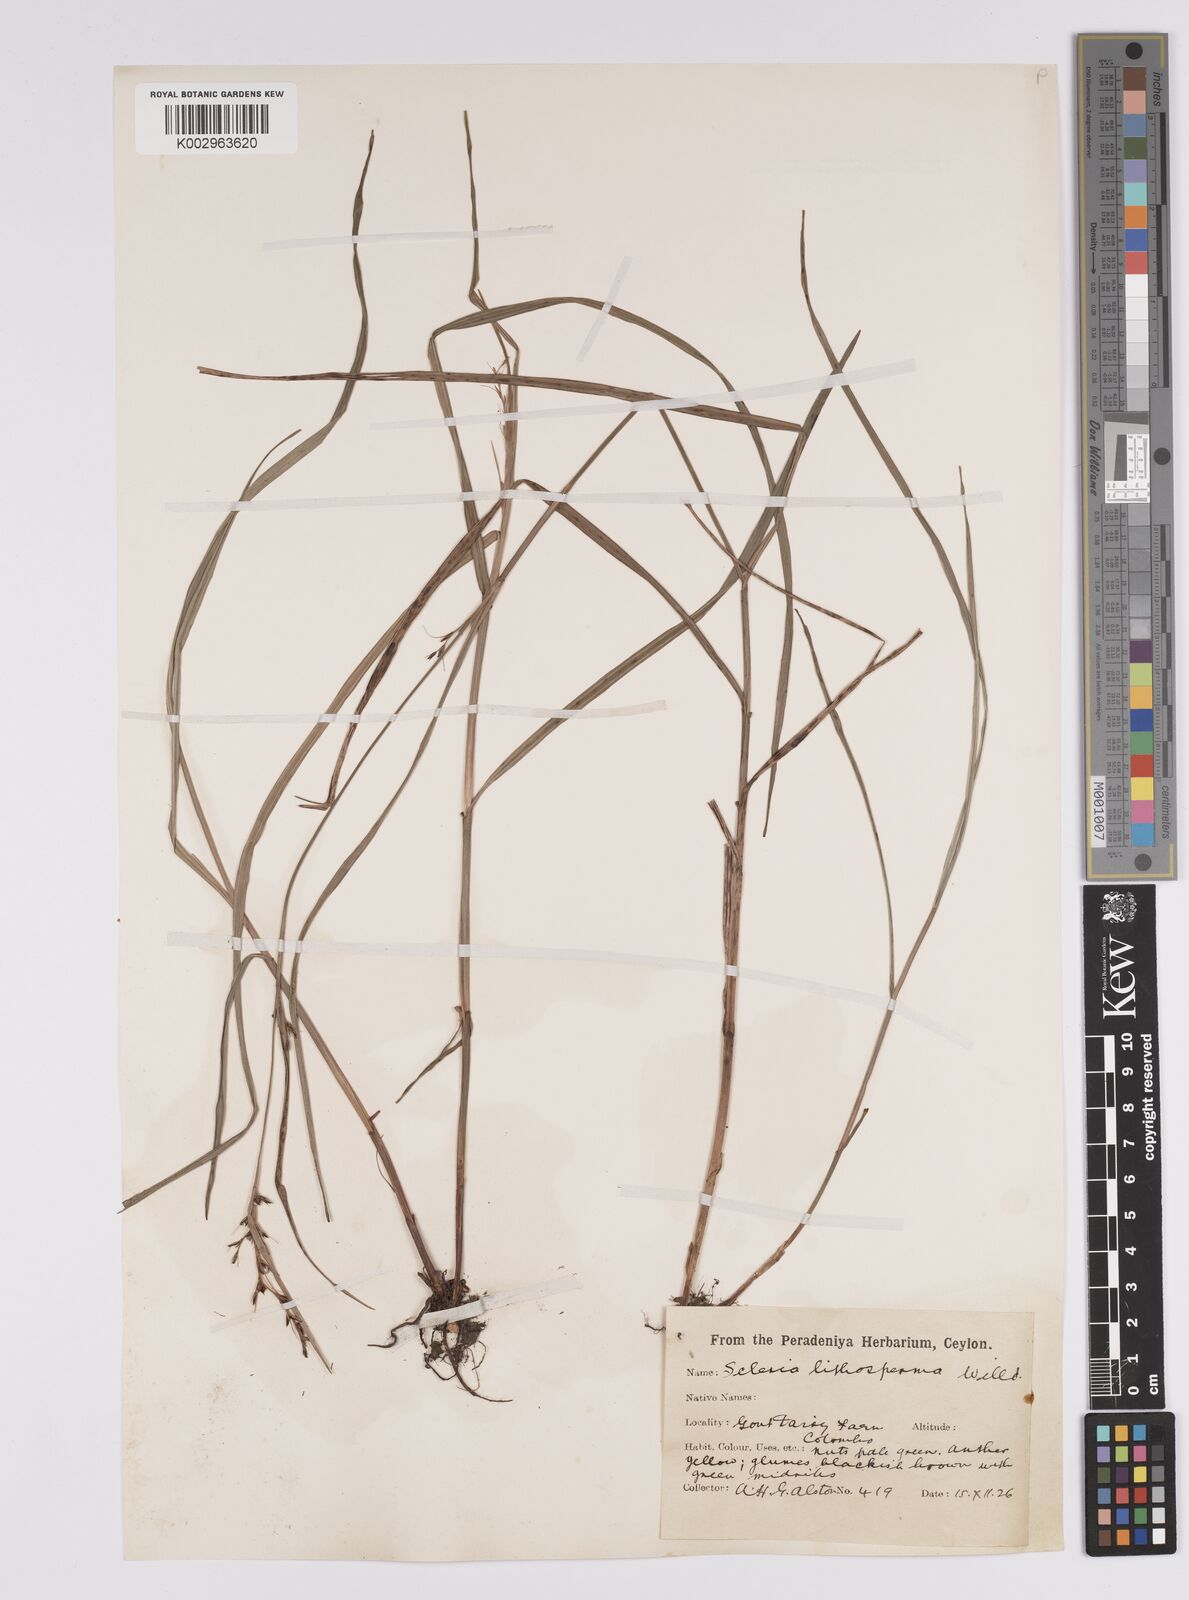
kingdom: Plantae
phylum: Tracheophyta
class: Liliopsida
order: Poales
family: Cyperaceae
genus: Scleria
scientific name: Scleria lithosperma
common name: Florida keys nut-rush
